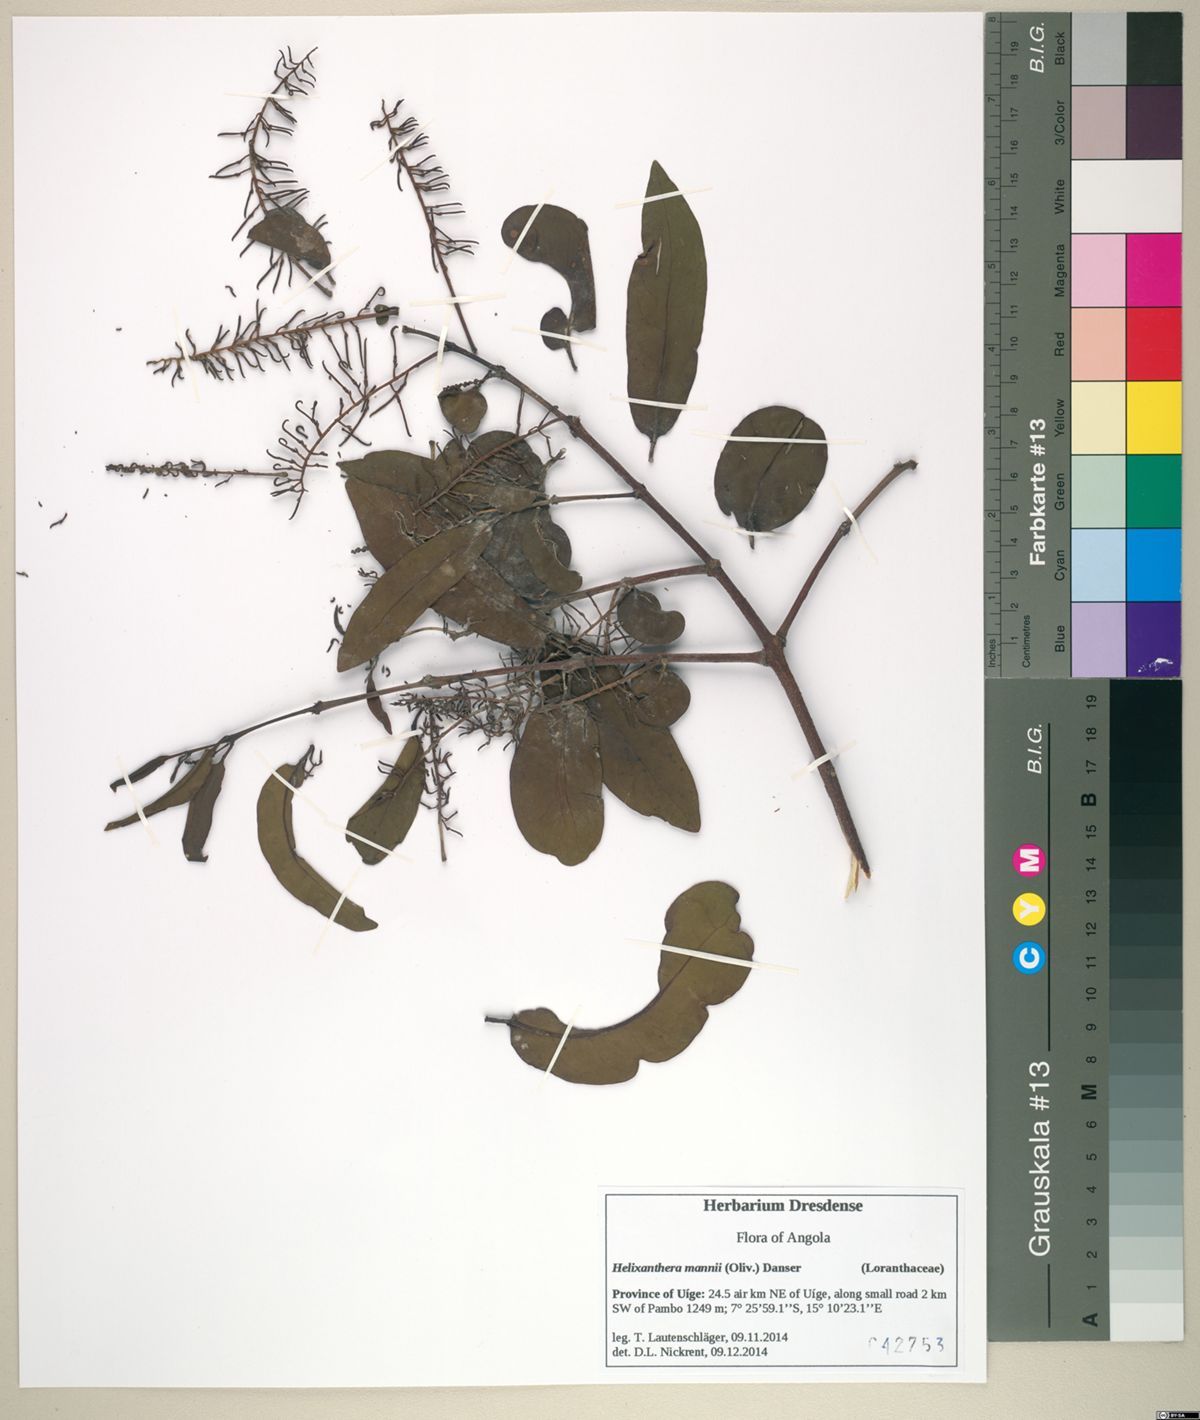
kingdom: Plantae
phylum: Tracheophyta
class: Magnoliopsida
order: Santalales
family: Loranthaceae
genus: Helixanthera
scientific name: Helixanthera mannii
